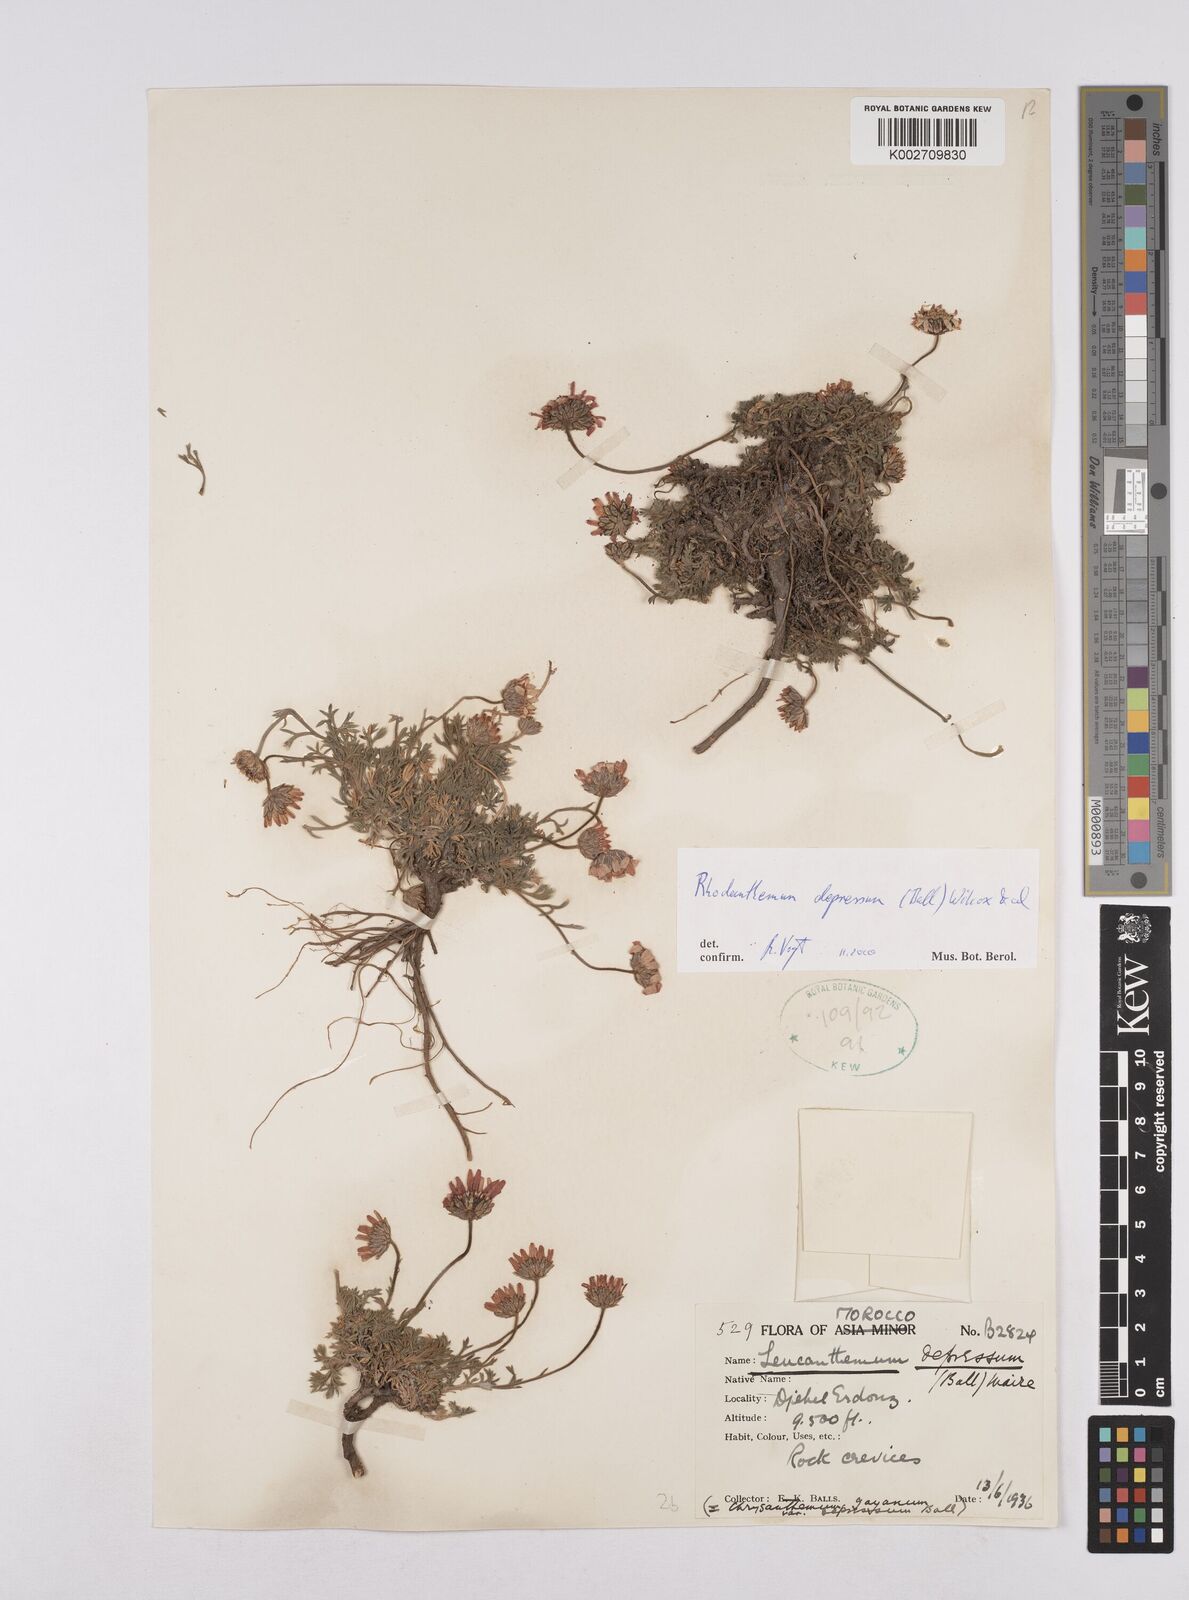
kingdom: Plantae
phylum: Tracheophyta
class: Magnoliopsida
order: Asterales
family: Asteraceae
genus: Rhodanthemum
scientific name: Rhodanthemum depressum
